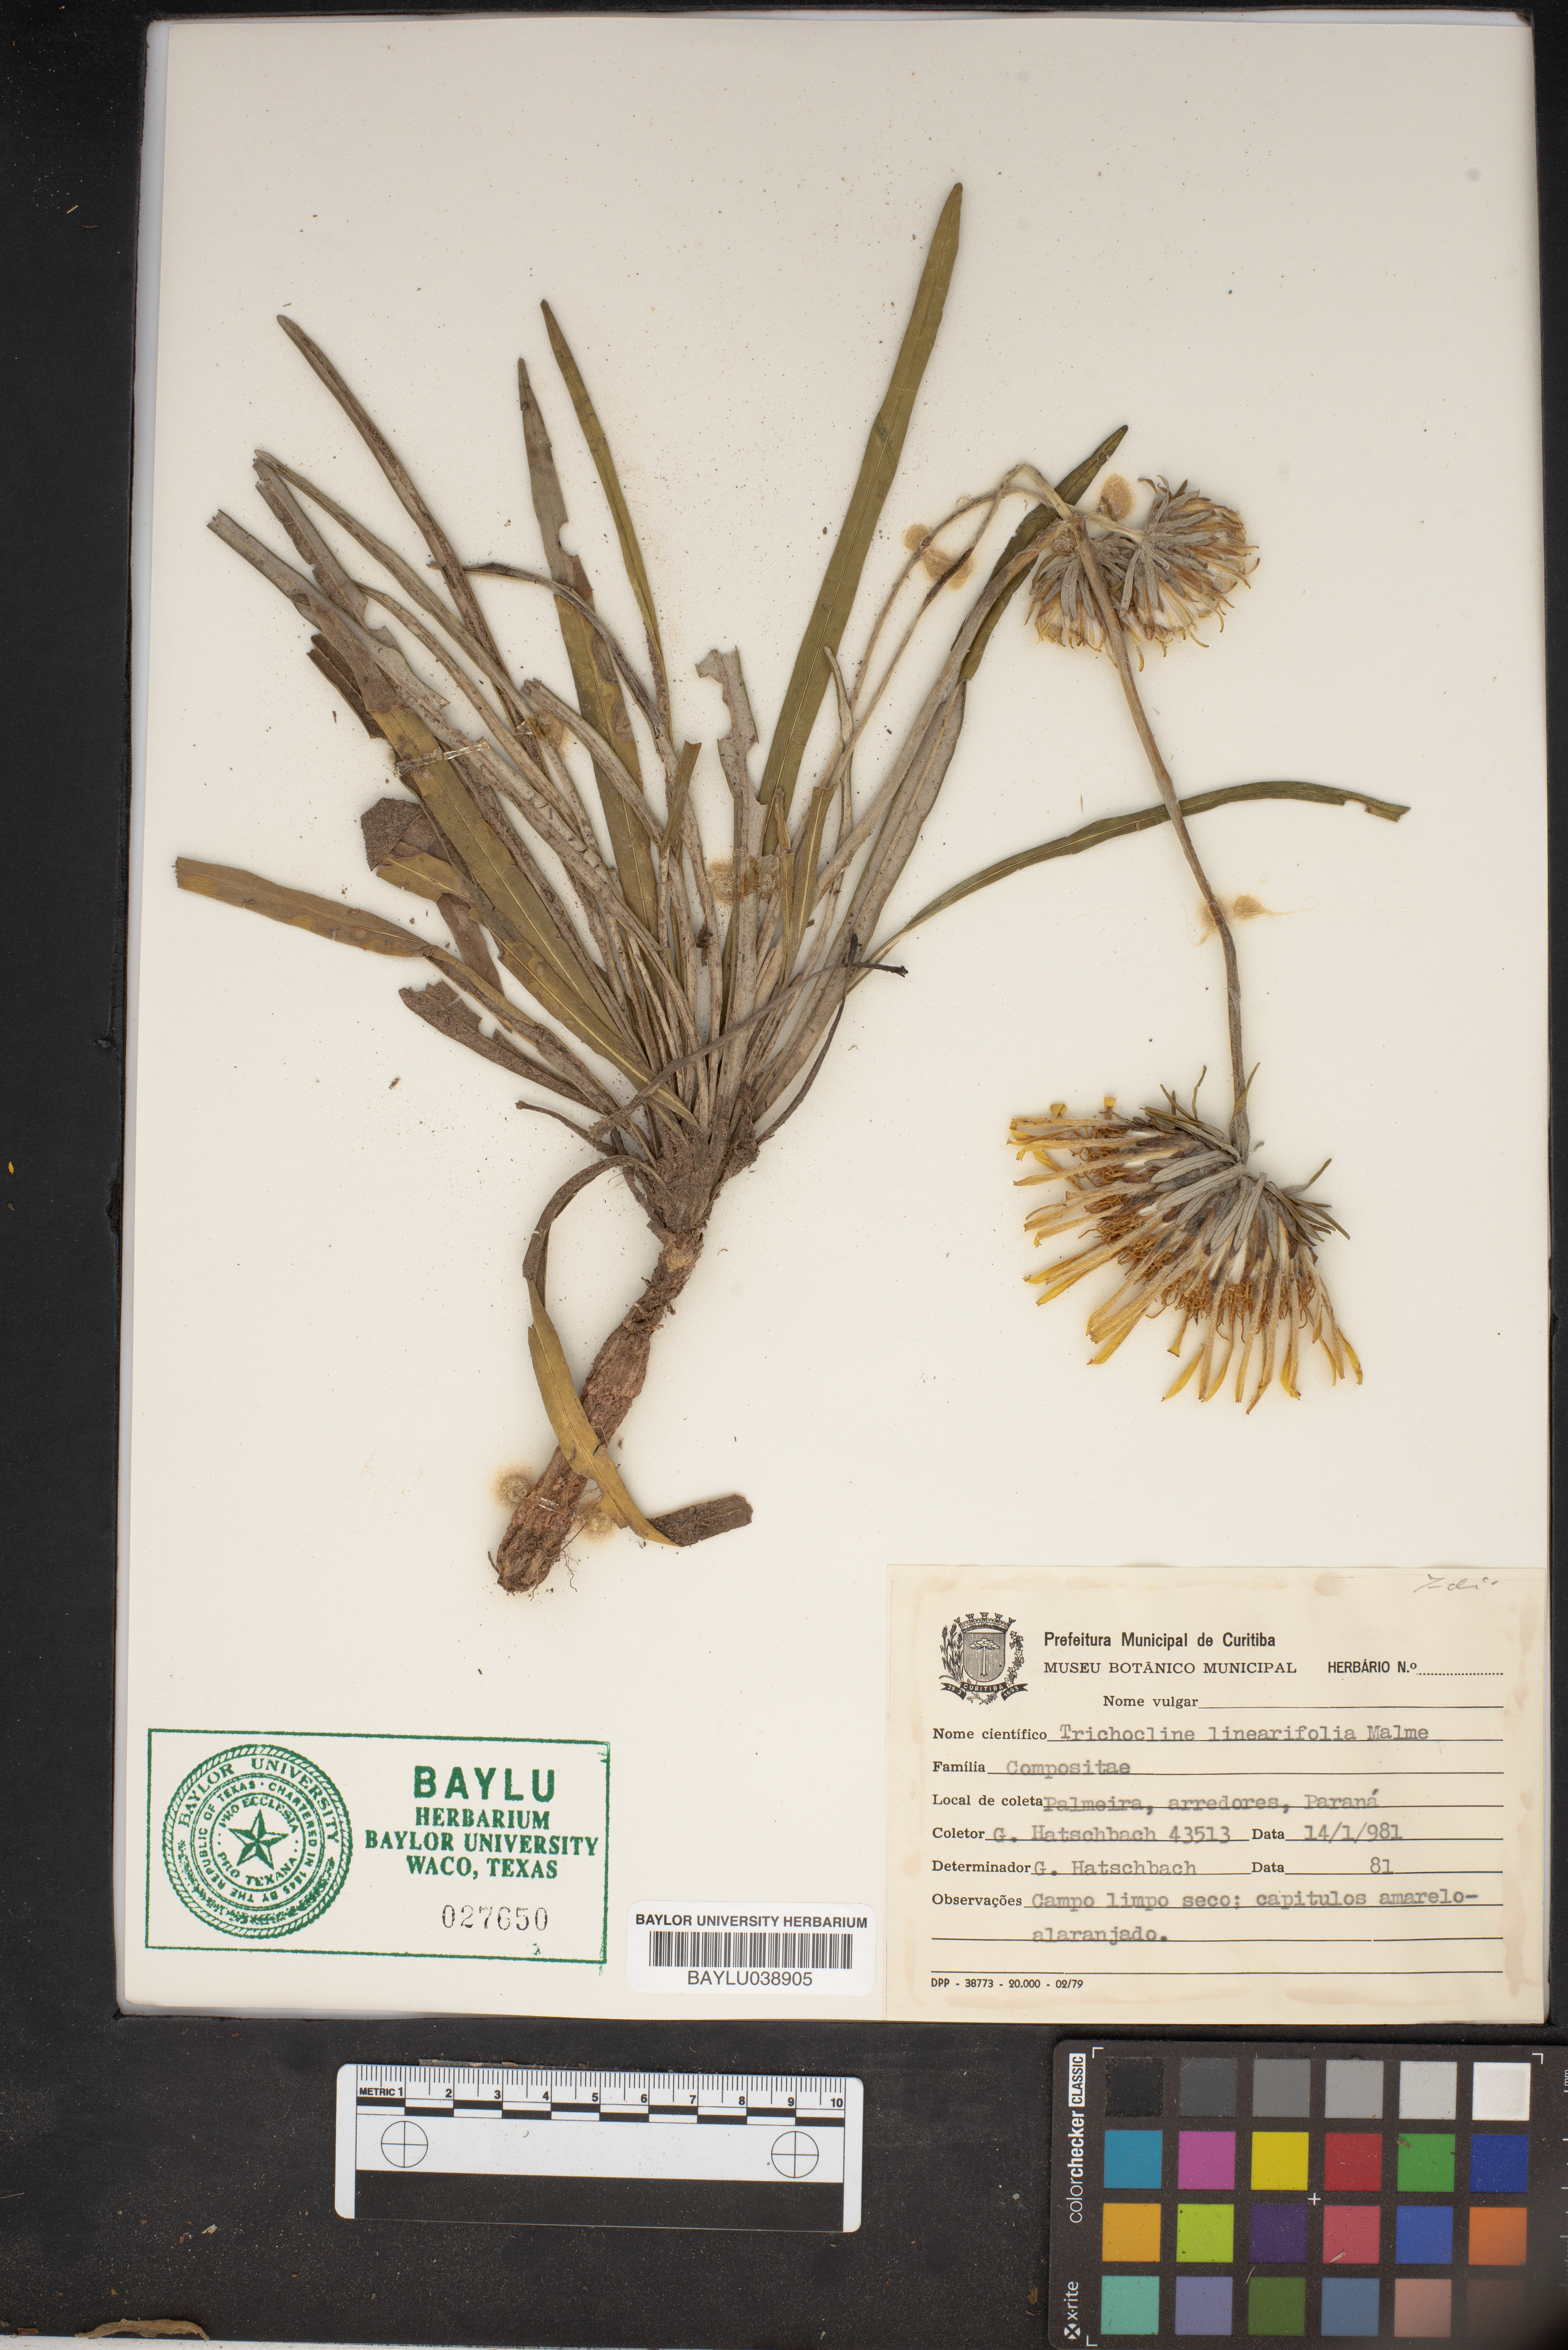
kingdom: Plantae
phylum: Tracheophyta
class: Magnoliopsida
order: Asterales
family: Asteraceae
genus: Trichocline
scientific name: Trichocline linearifolia
